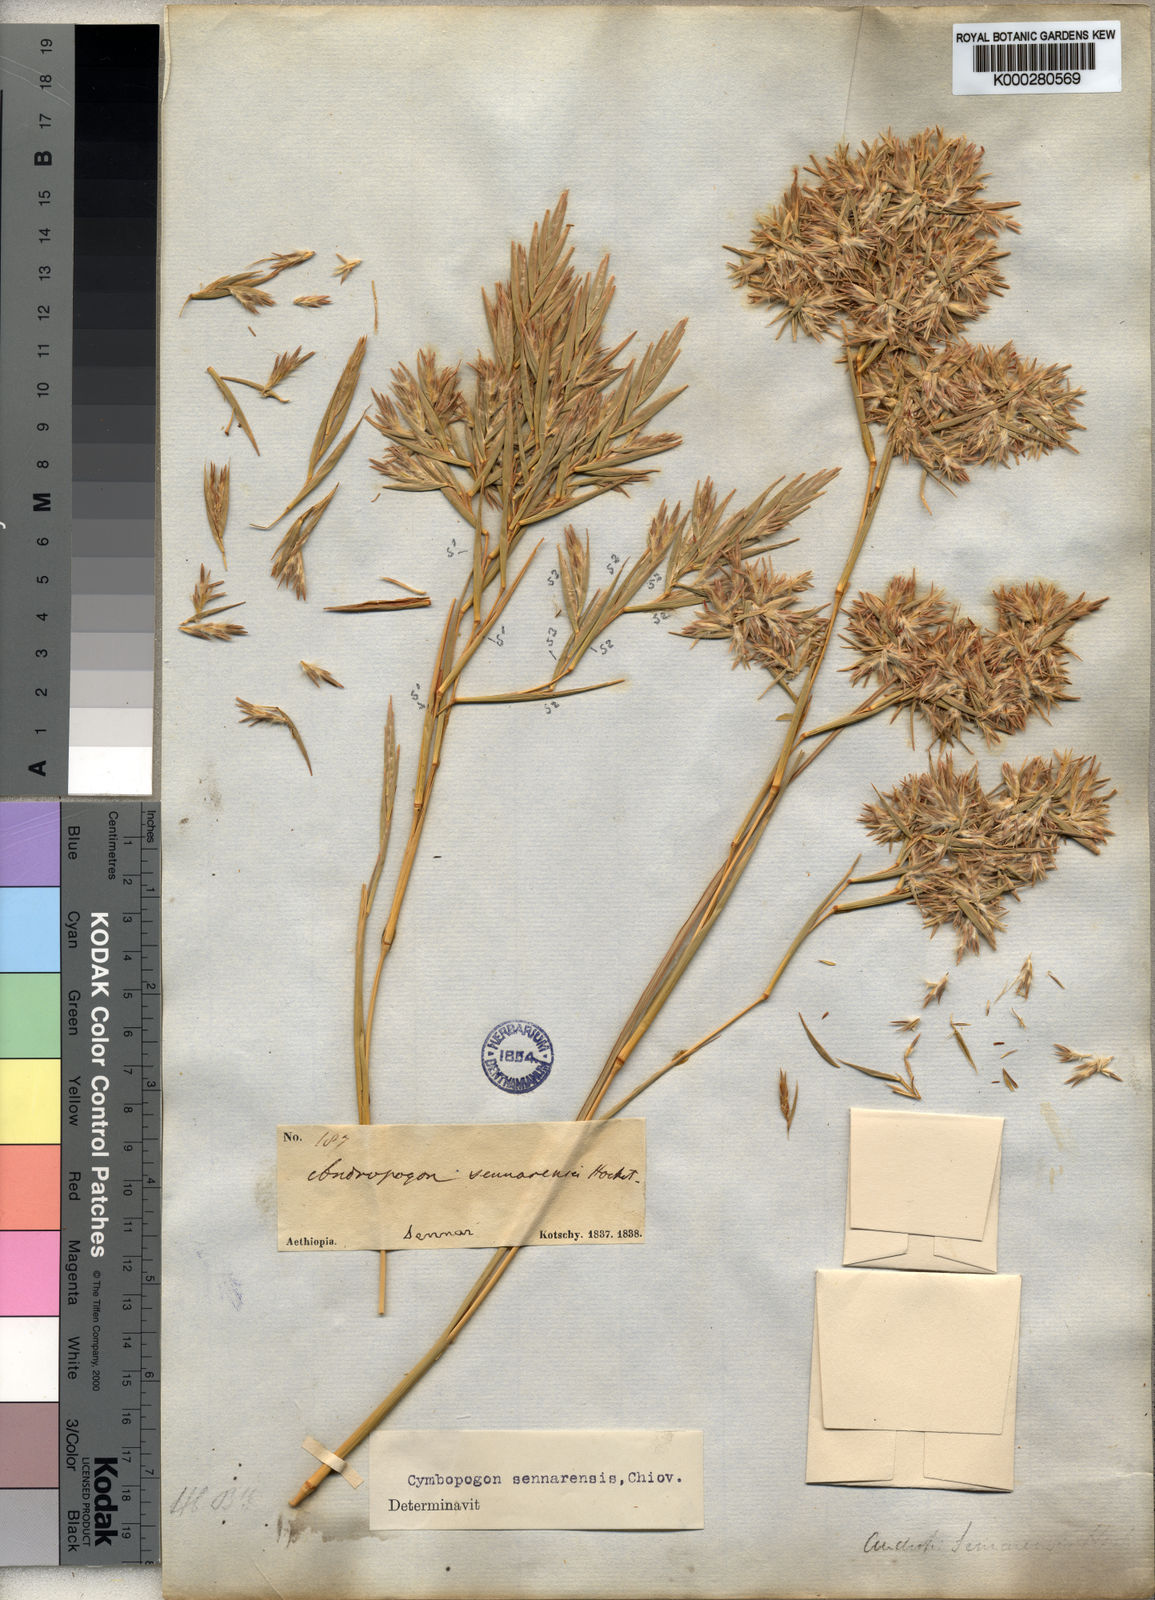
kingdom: Plantae
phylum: Tracheophyta
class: Liliopsida
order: Poales
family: Poaceae
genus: Cymbopogon
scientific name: Cymbopogon schoenanthus
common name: Geranium grass
